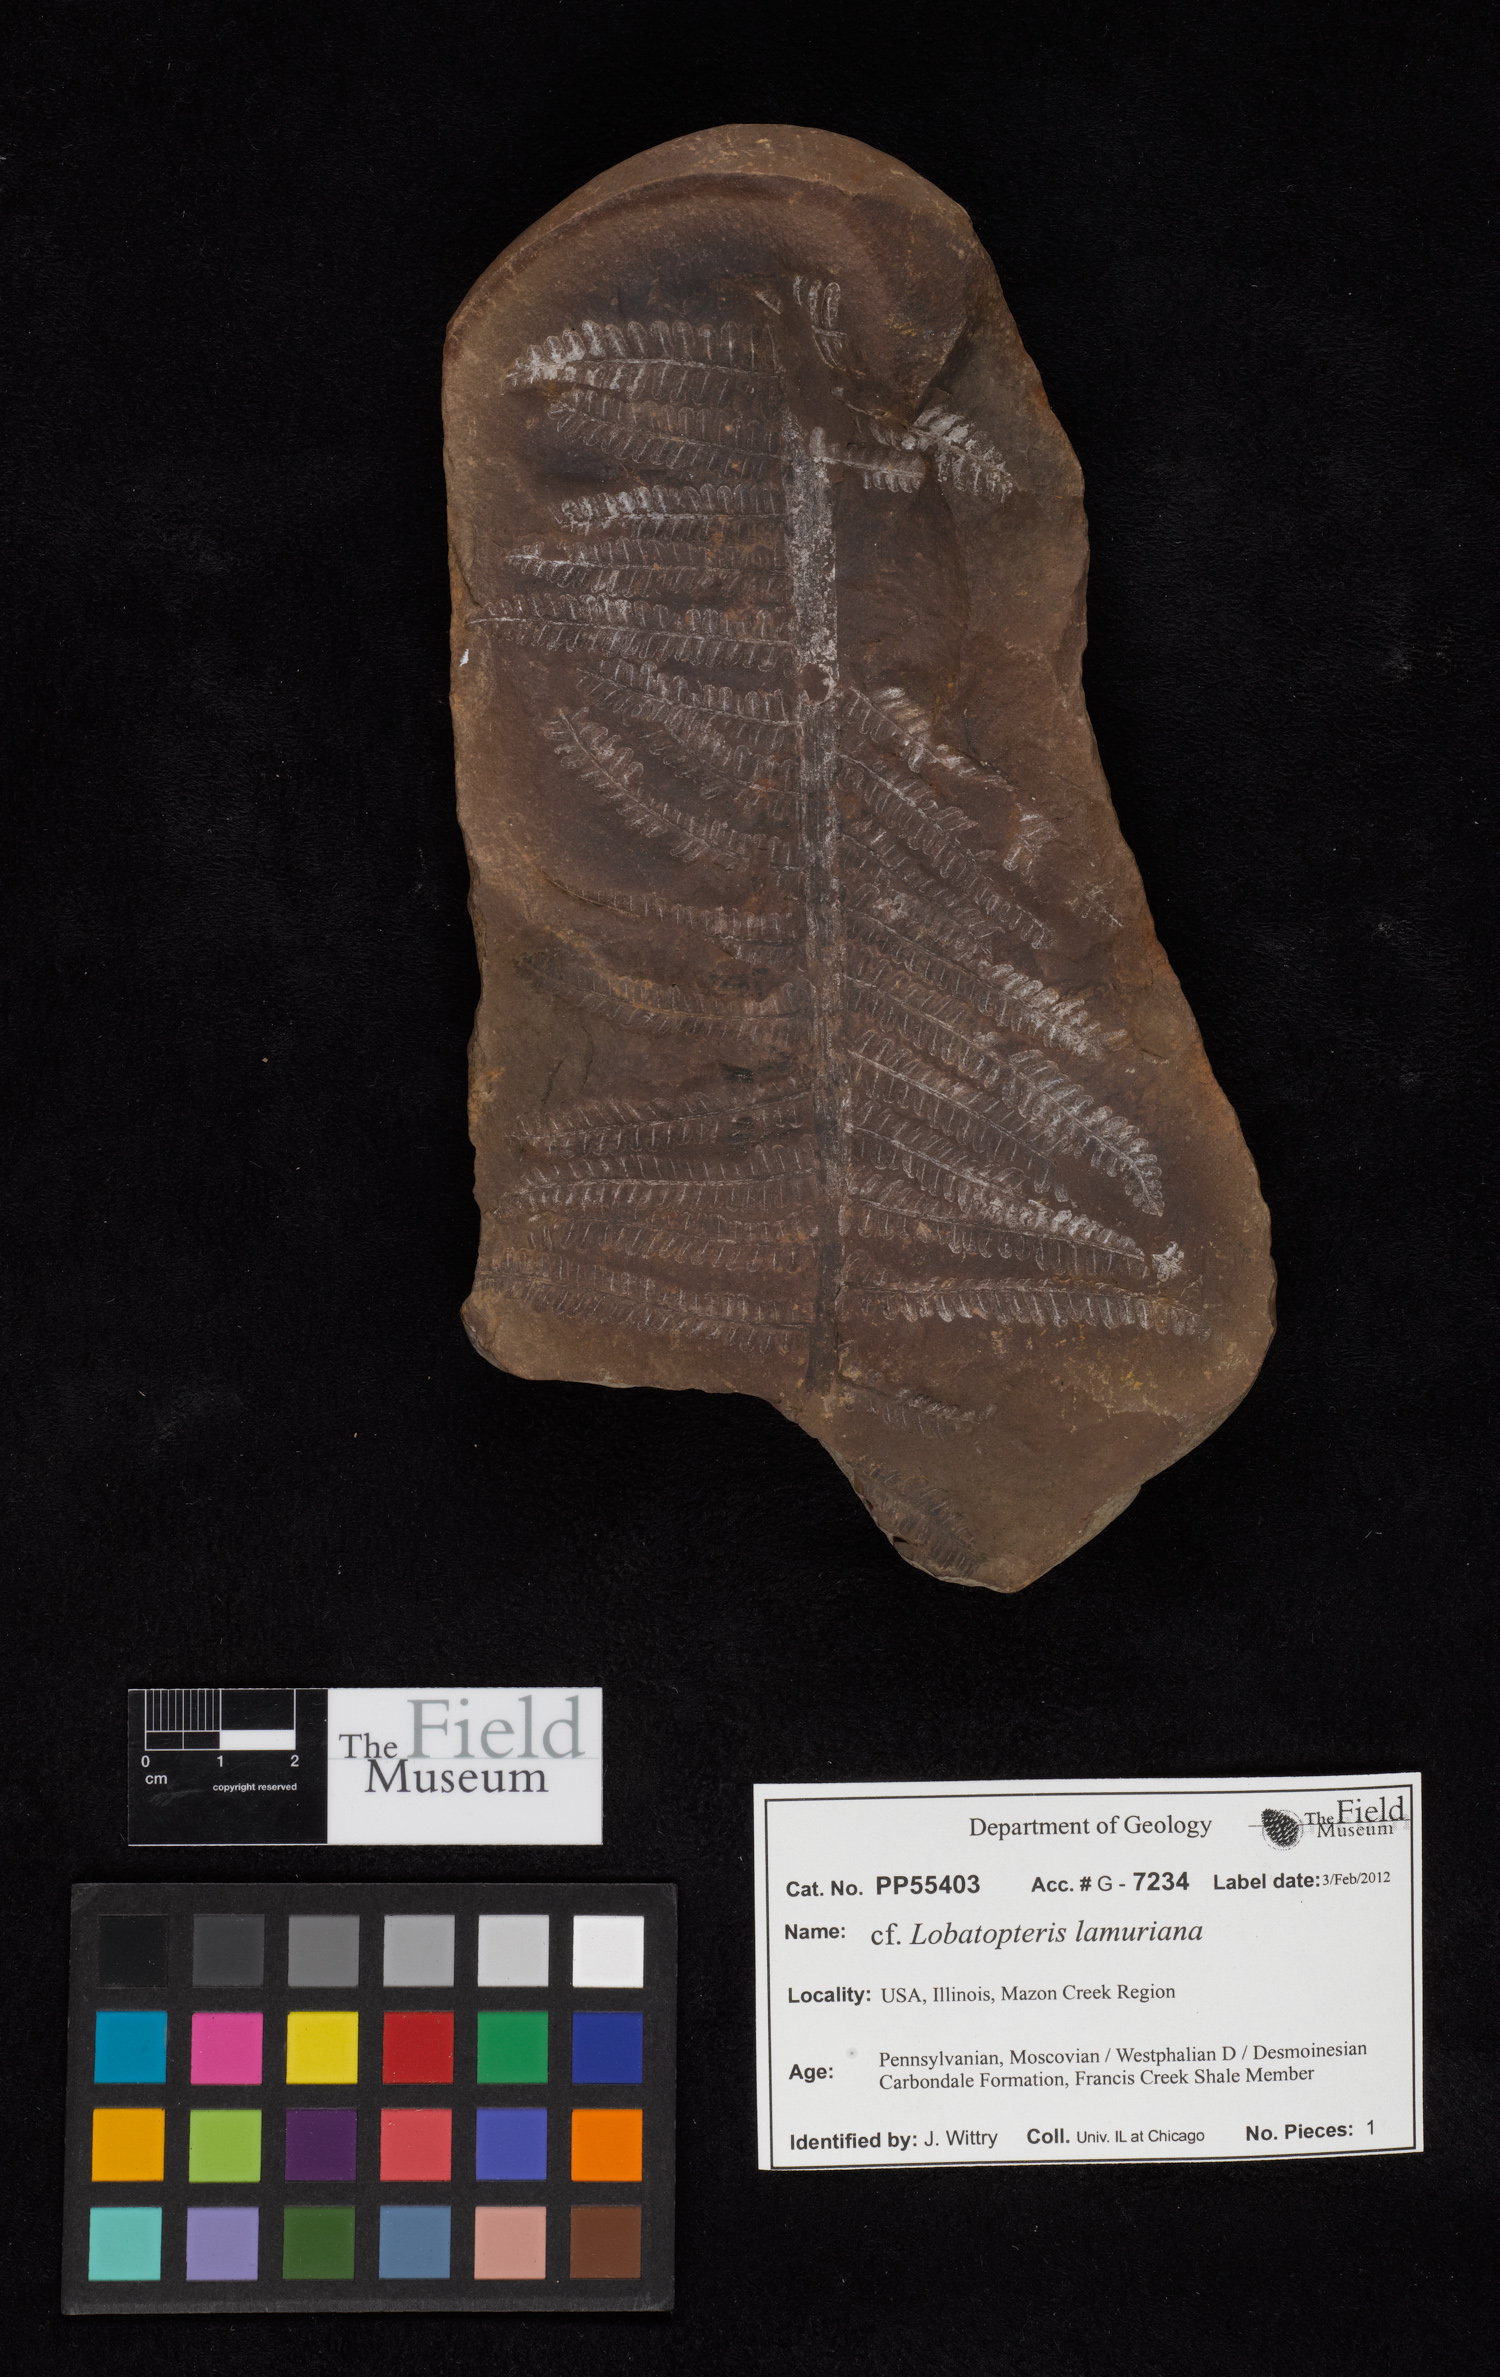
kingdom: Plantae
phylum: Tracheophyta
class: Polypodiopsida
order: Marattiales
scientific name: Marattiales
